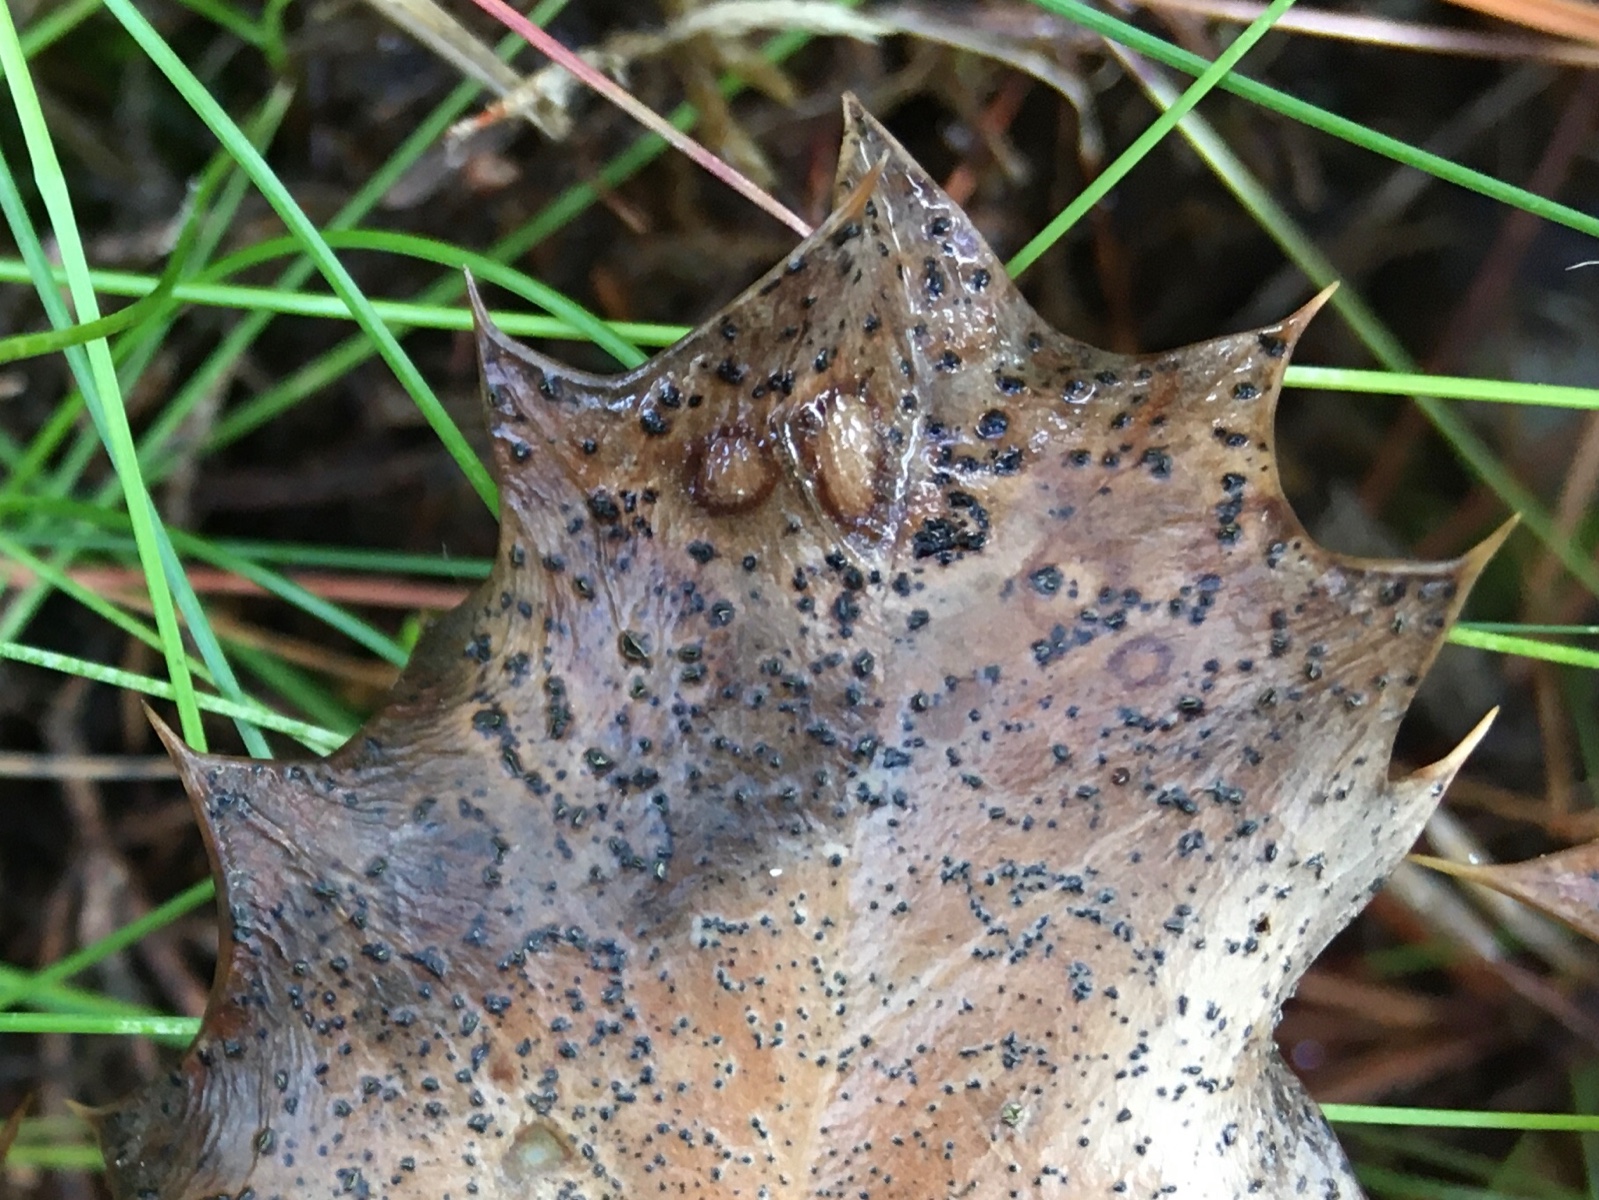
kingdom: Fungi
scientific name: Fungi
